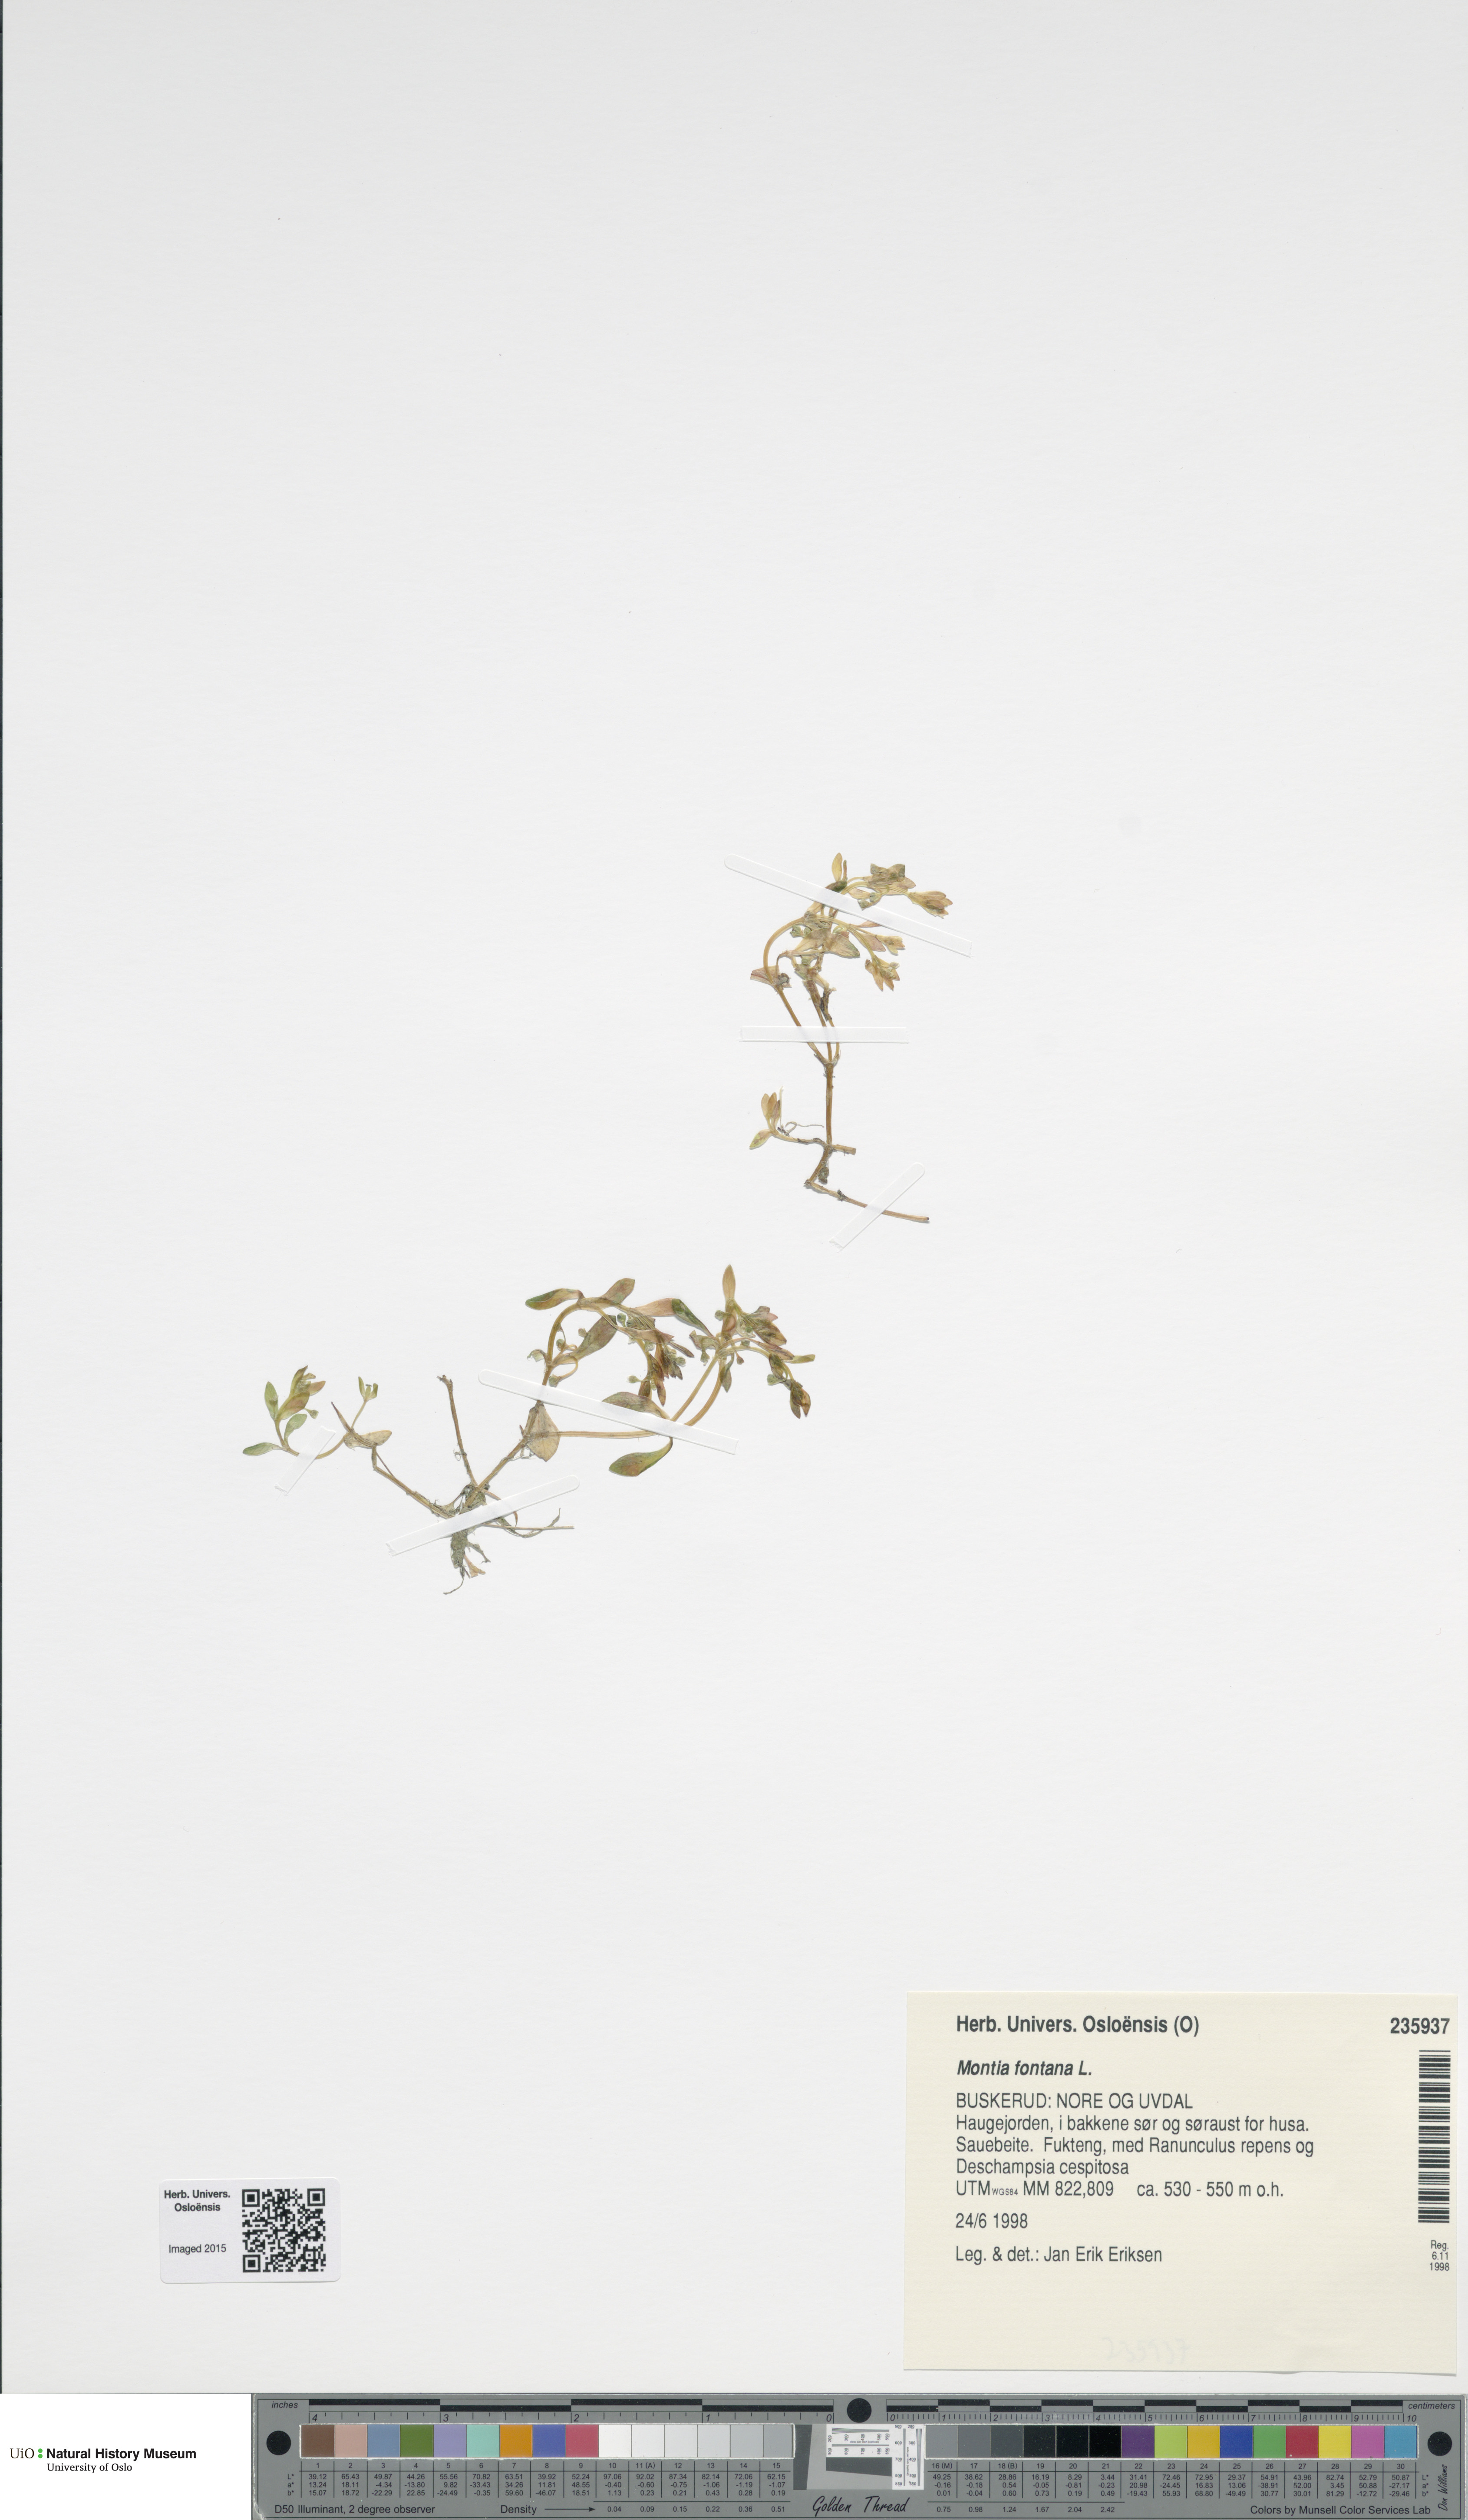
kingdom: Plantae
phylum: Tracheophyta
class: Magnoliopsida
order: Caryophyllales
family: Montiaceae
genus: Montia
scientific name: Montia fontana
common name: Blinks
